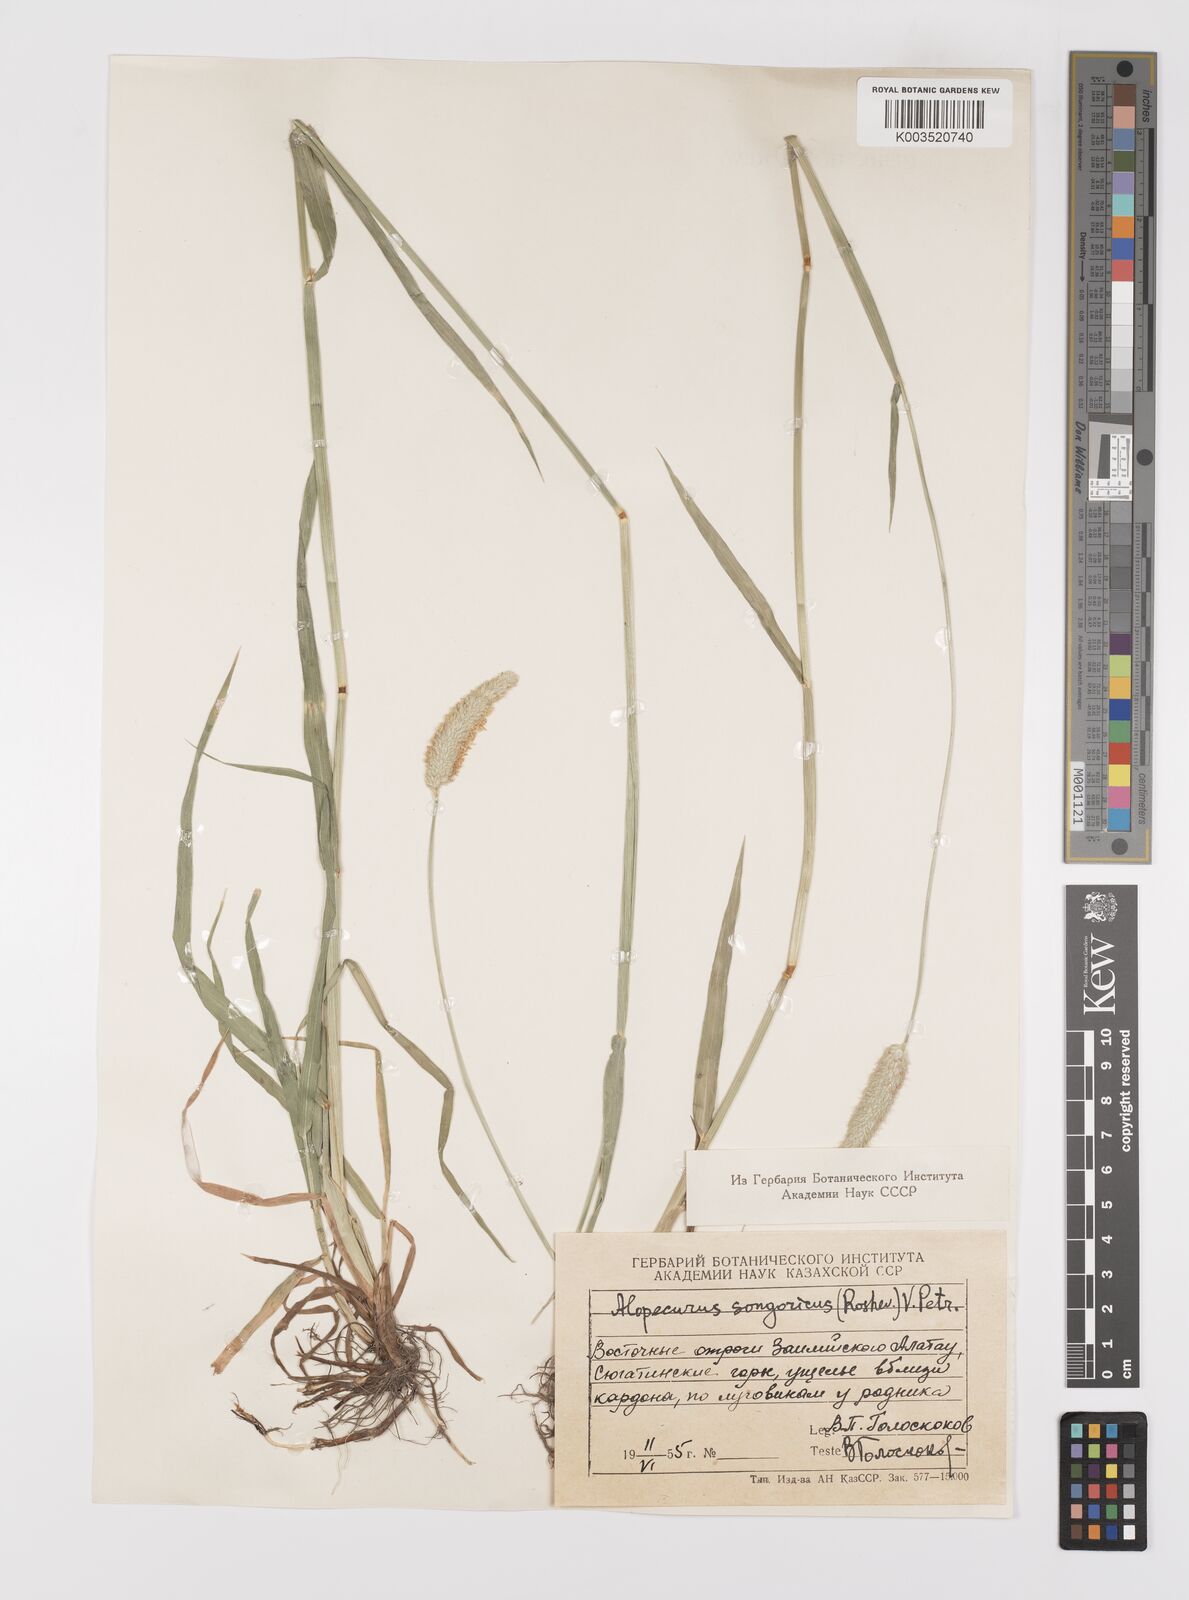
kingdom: Plantae
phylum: Tracheophyta
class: Liliopsida
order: Poales
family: Poaceae
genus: Alopecurus
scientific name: Alopecurus pratensis
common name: Meadow foxtail
